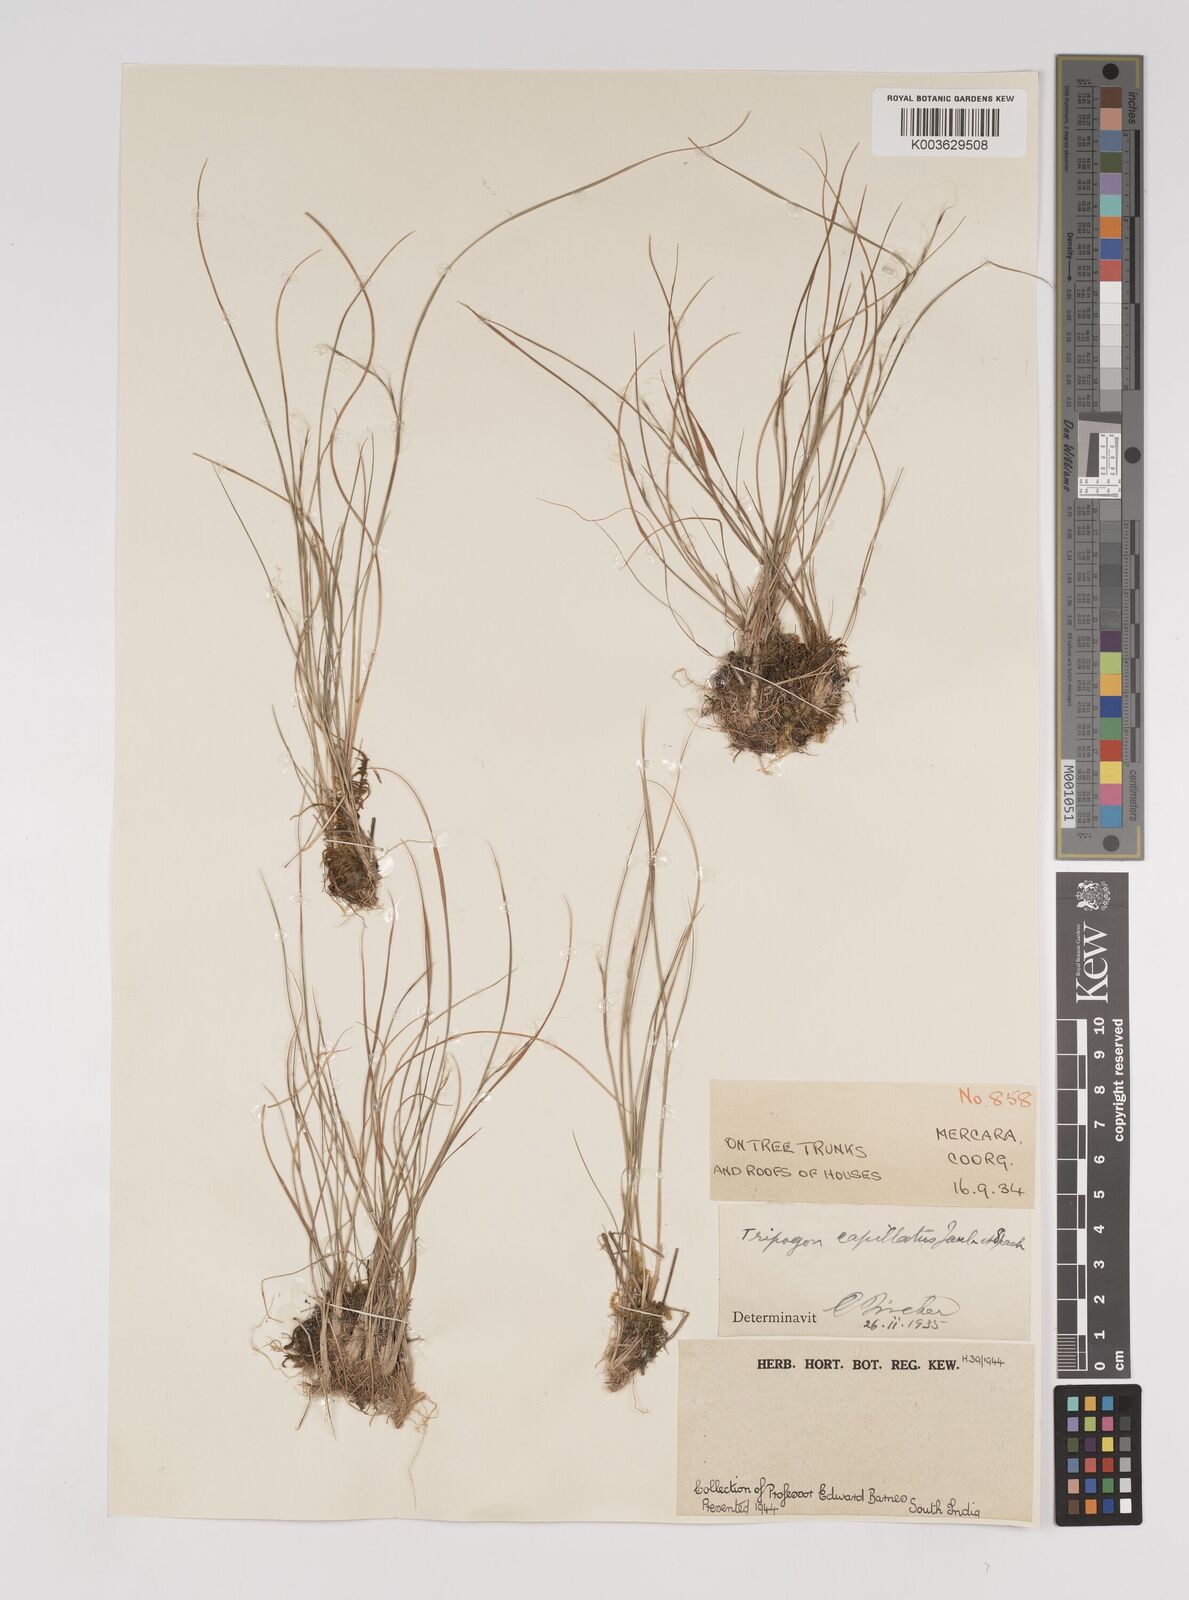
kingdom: Plantae
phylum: Tracheophyta
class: Liliopsida
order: Poales
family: Poaceae
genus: Tripogon
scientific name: Tripogon capillatus
